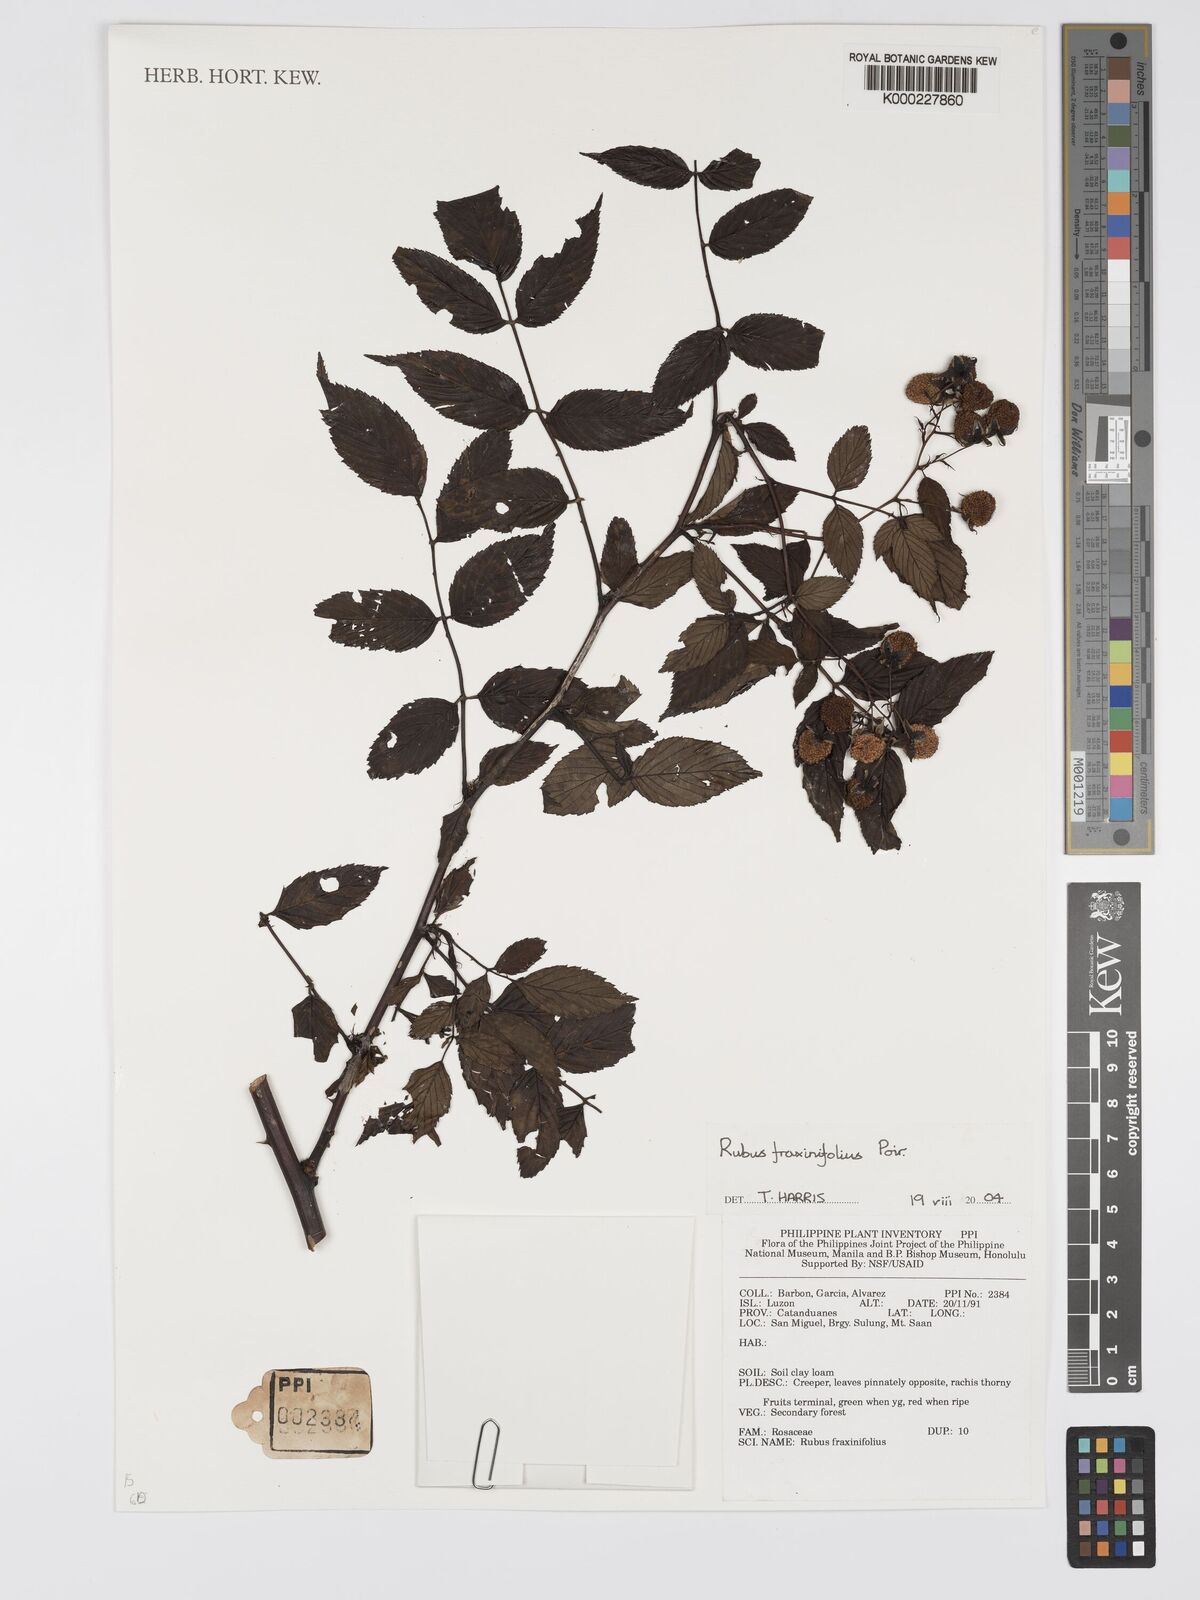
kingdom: Plantae
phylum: Tracheophyta
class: Magnoliopsida
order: Rosales
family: Rosaceae
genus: Rubus
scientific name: Rubus fraxinifolius
